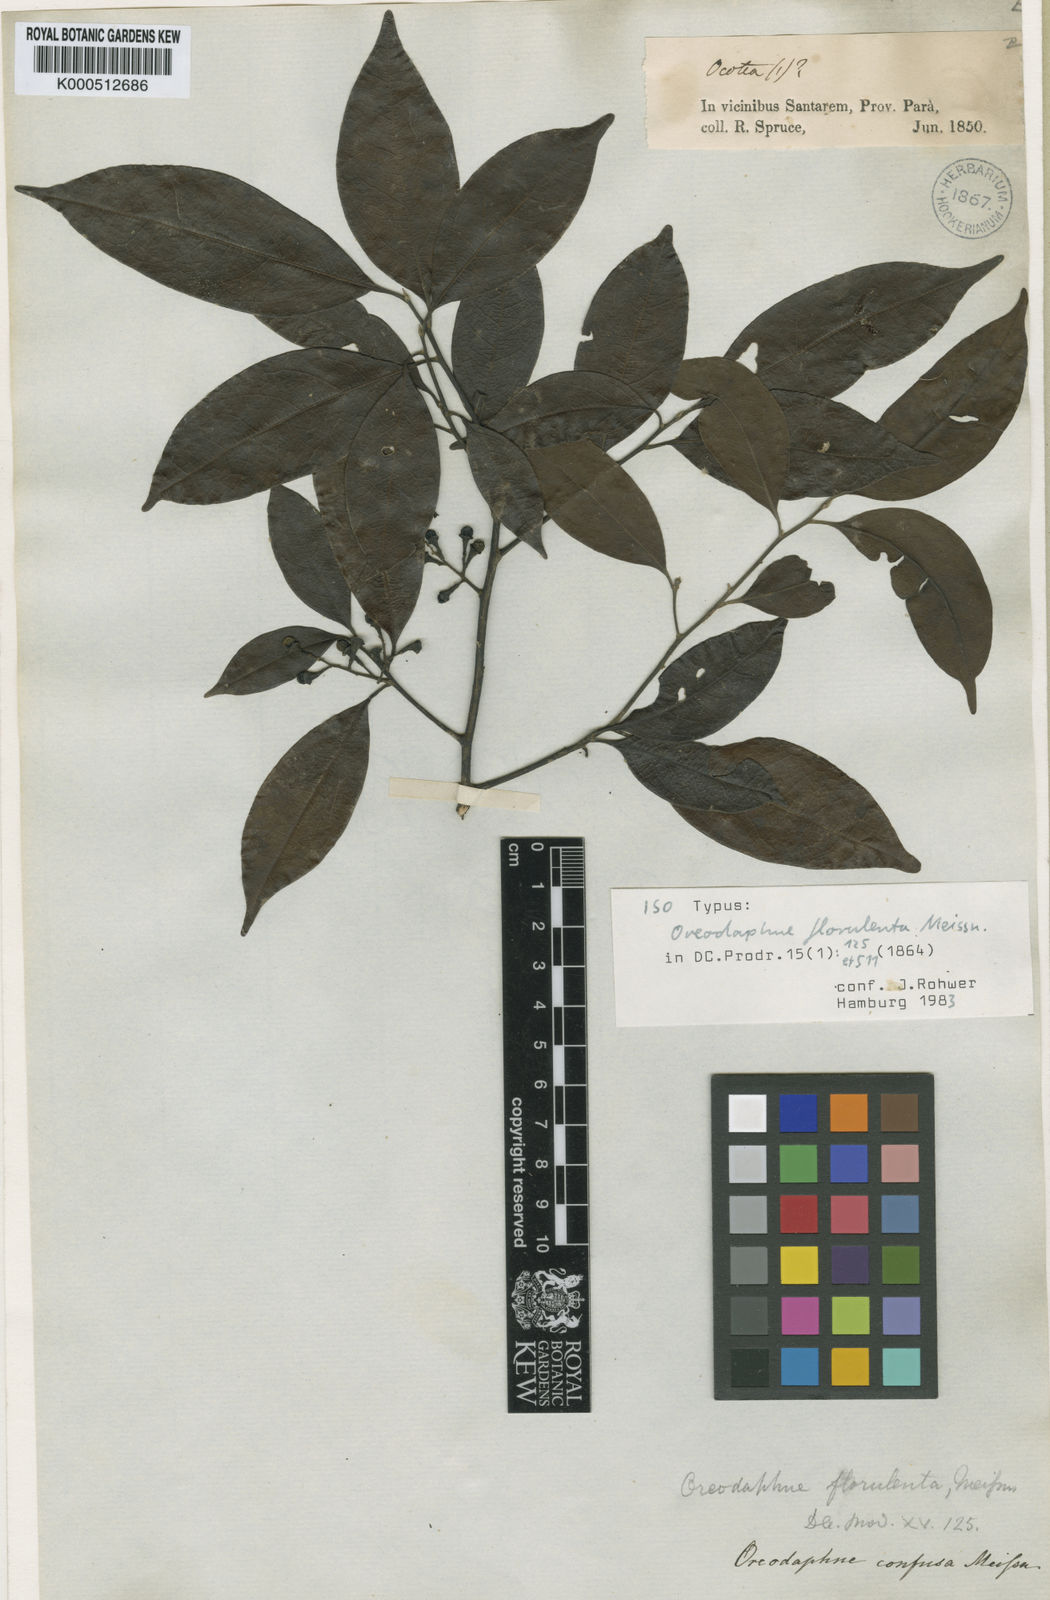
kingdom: Plantae
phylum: Tracheophyta
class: Magnoliopsida
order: Laurales
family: Lauraceae
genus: Ocotea
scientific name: Ocotea neesiana
